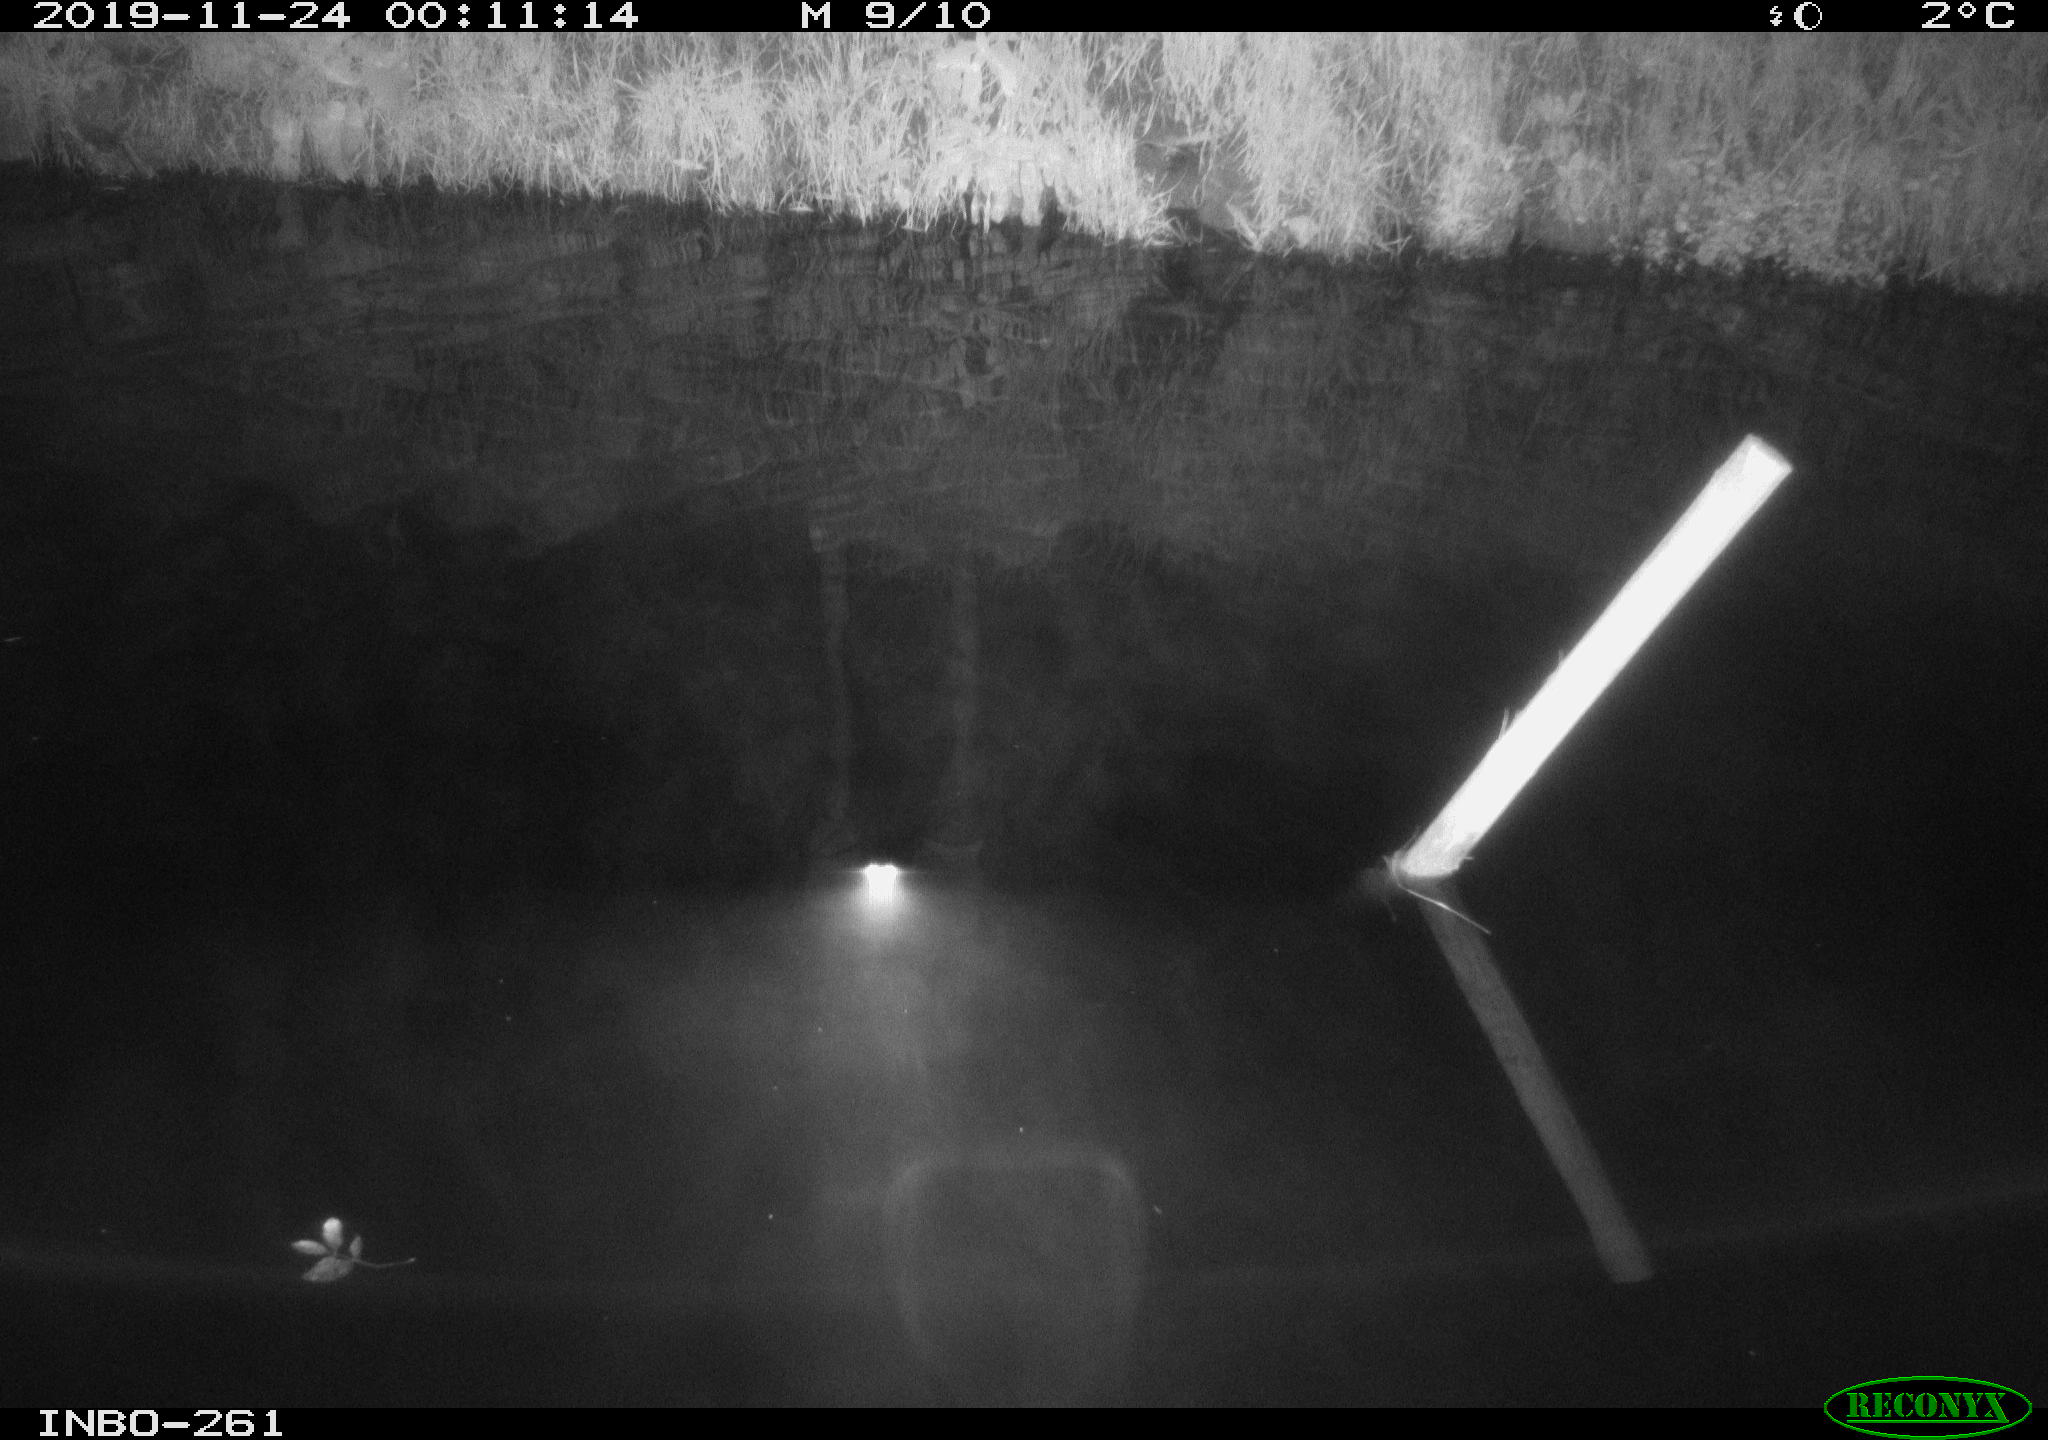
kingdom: Animalia
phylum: Chordata
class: Aves
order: Anseriformes
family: Anatidae
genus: Anas
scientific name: Anas platyrhynchos
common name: Mallard
